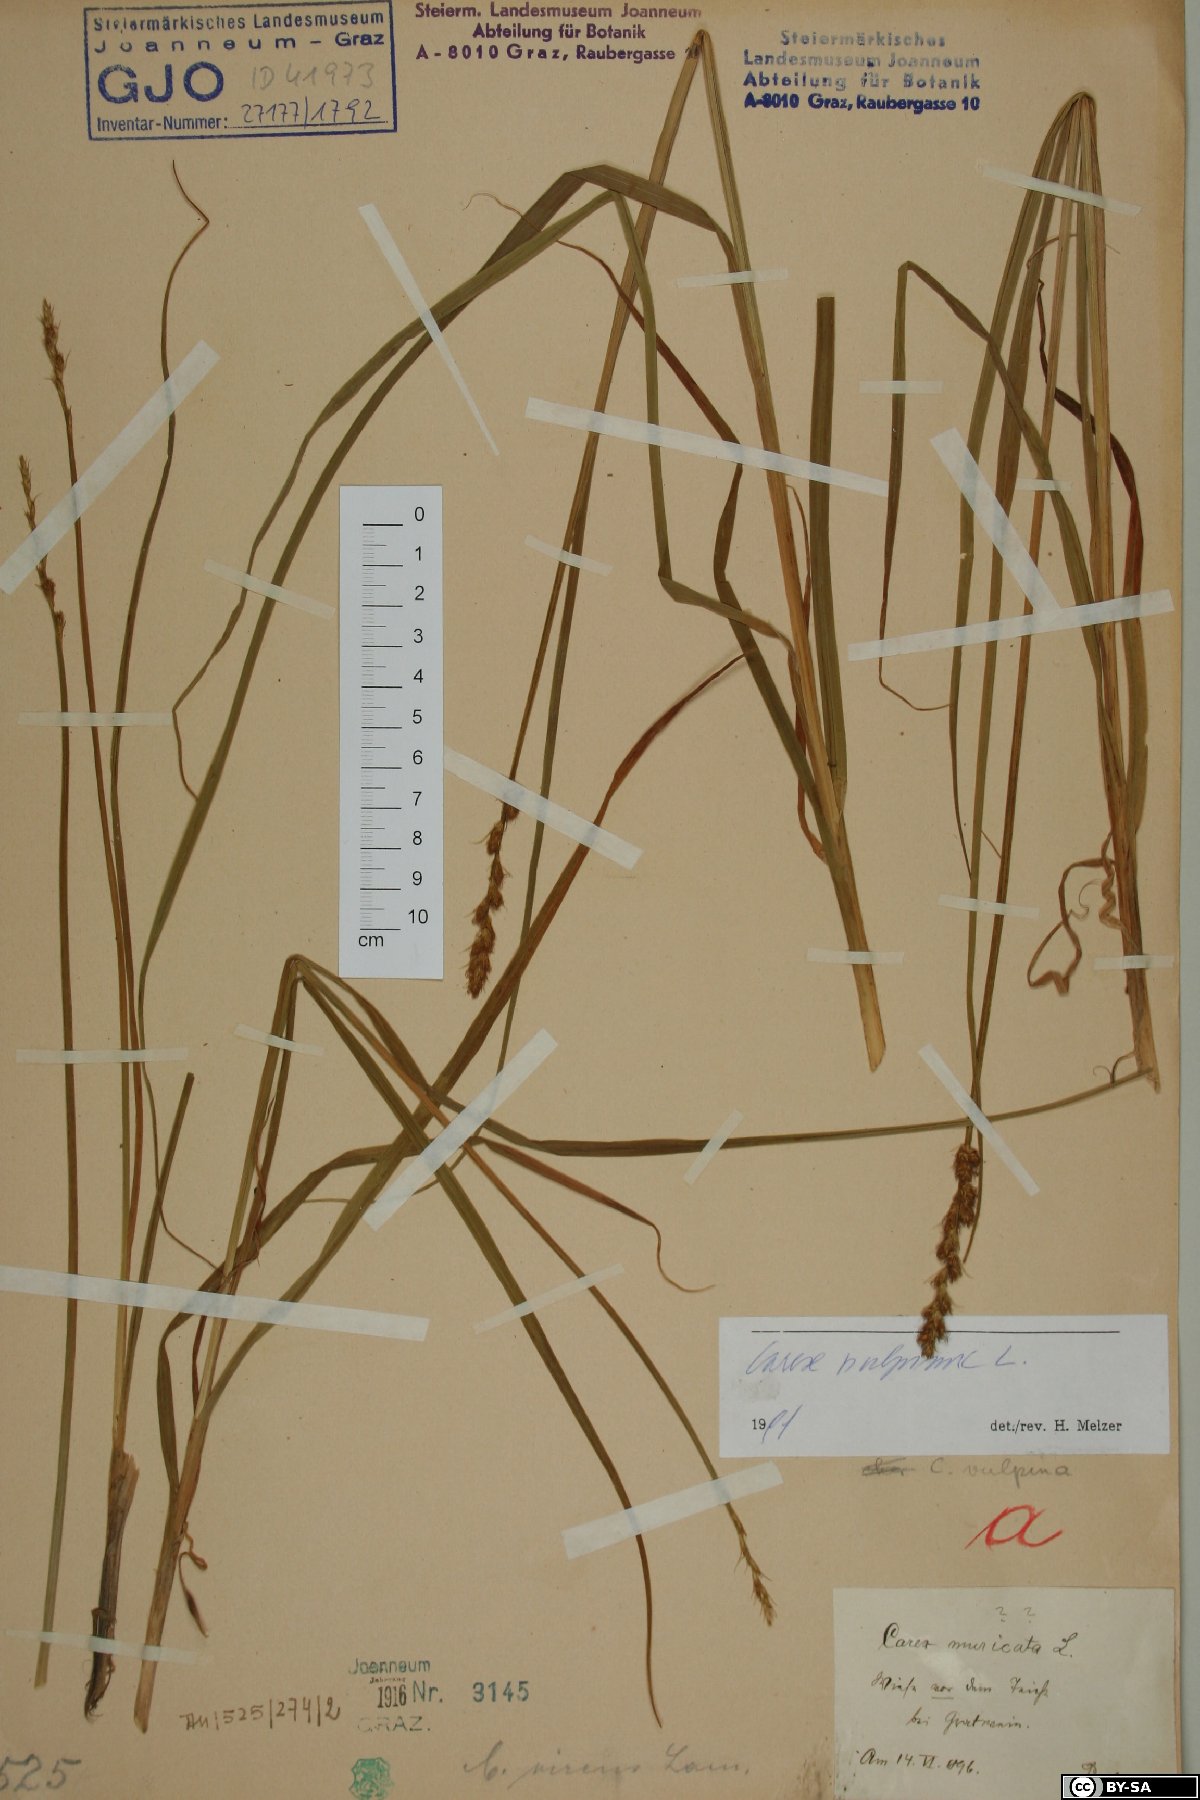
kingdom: Plantae
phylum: Tracheophyta
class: Liliopsida
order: Poales
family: Cyperaceae
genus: Carex
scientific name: Carex vulpina
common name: True fox-sedge
